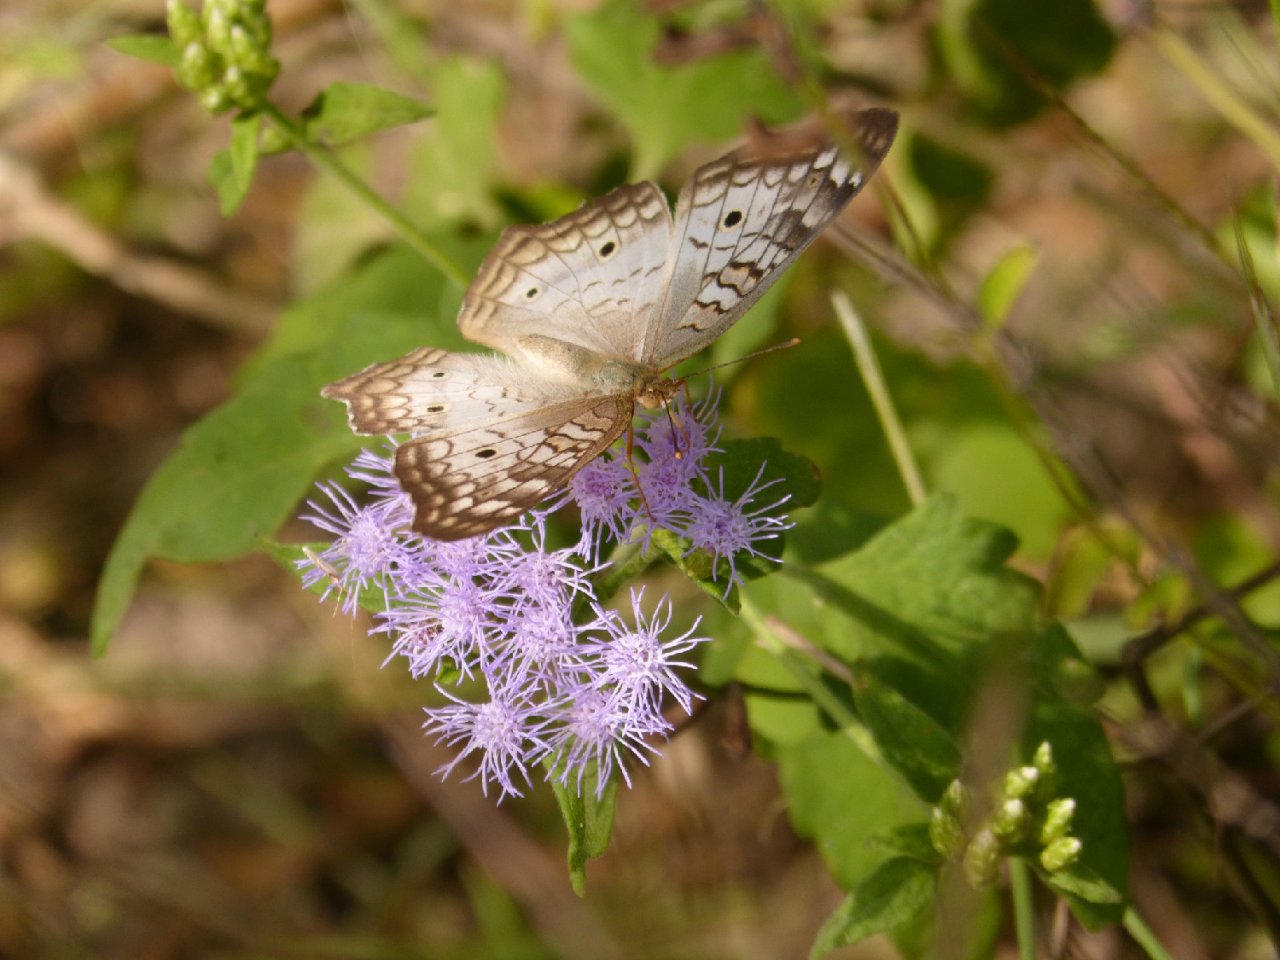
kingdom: Animalia
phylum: Arthropoda
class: Insecta
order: Lepidoptera
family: Nymphalidae
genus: Anartia
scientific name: Anartia jatrophae
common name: White Peacock
